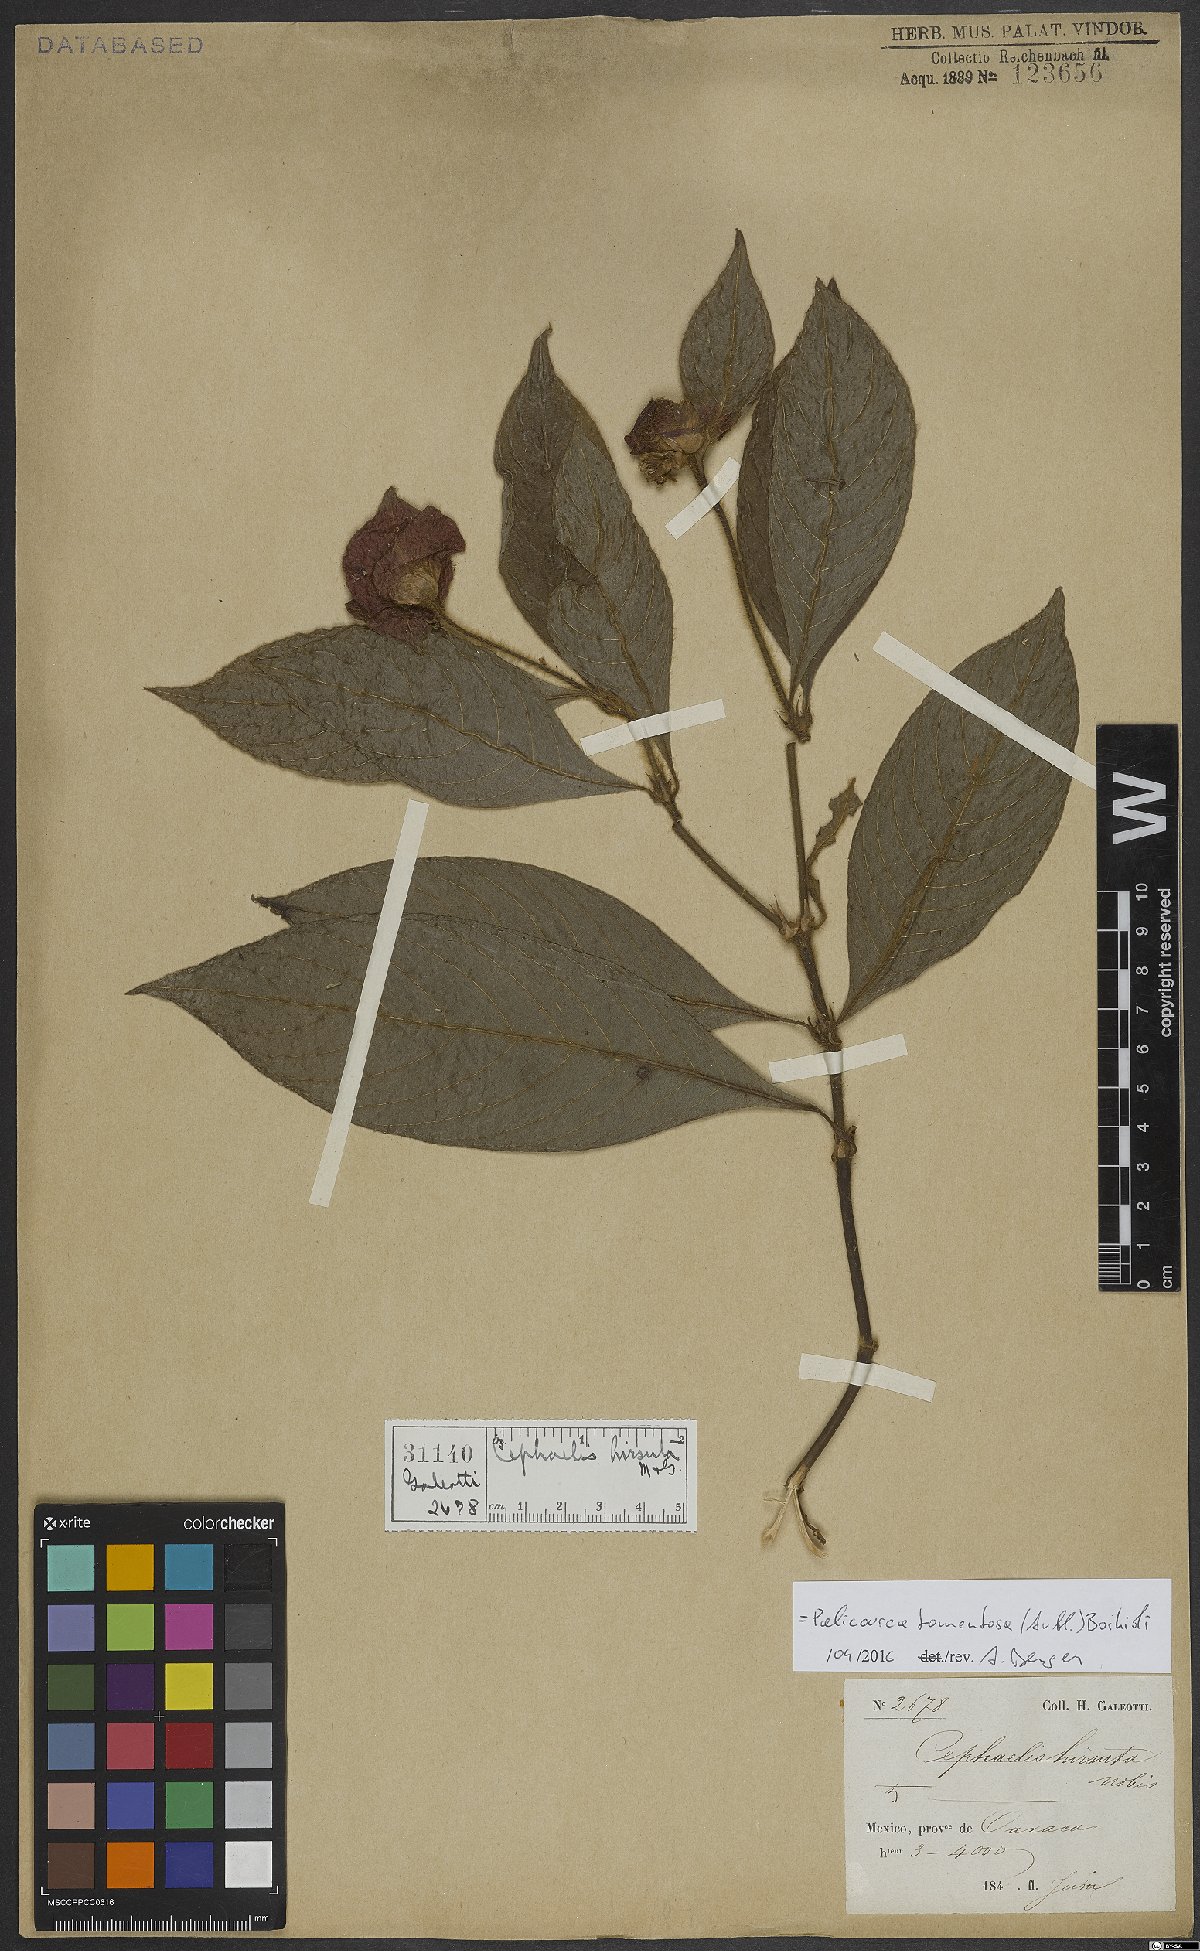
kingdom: Plantae
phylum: Tracheophyta
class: Magnoliopsida
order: Gentianales
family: Rubiaceae
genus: Palicourea
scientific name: Palicourea tomentosa
